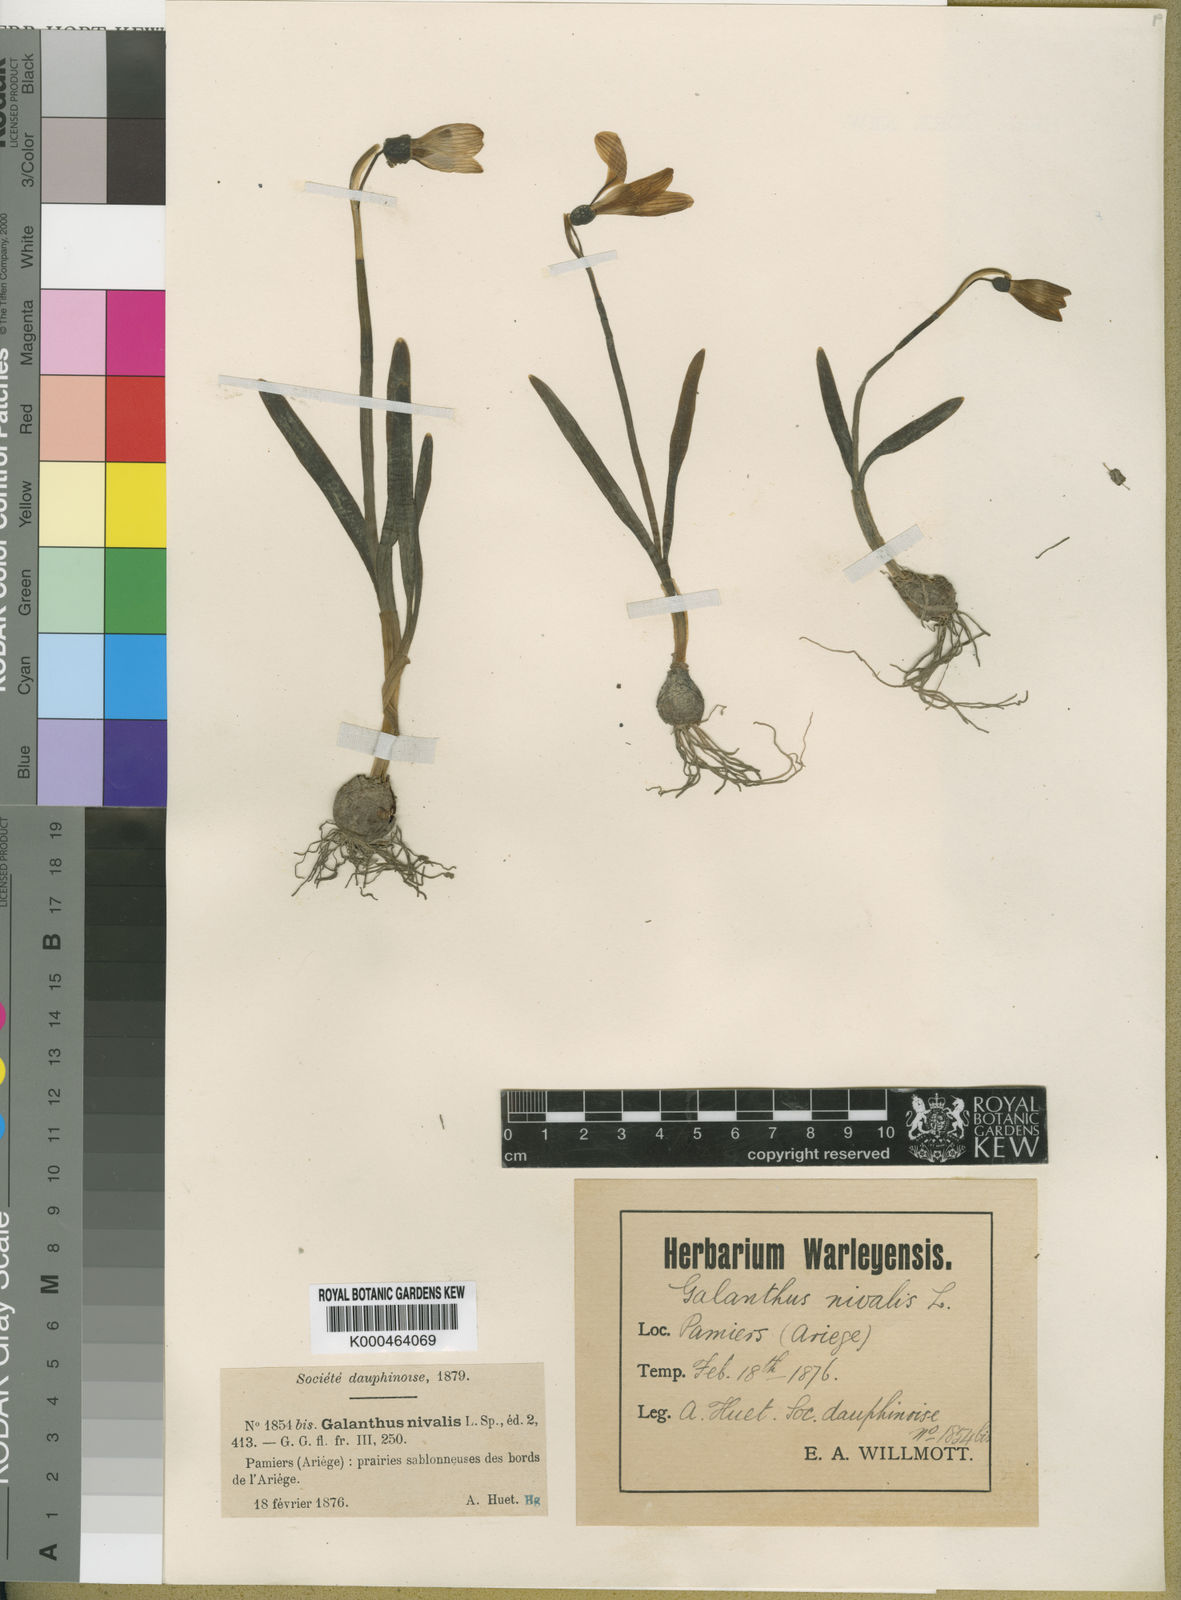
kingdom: Plantae
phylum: Tracheophyta
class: Liliopsida
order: Asparagales
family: Amaryllidaceae
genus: Galanthus
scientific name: Galanthus nivalis
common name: Snowdrop
